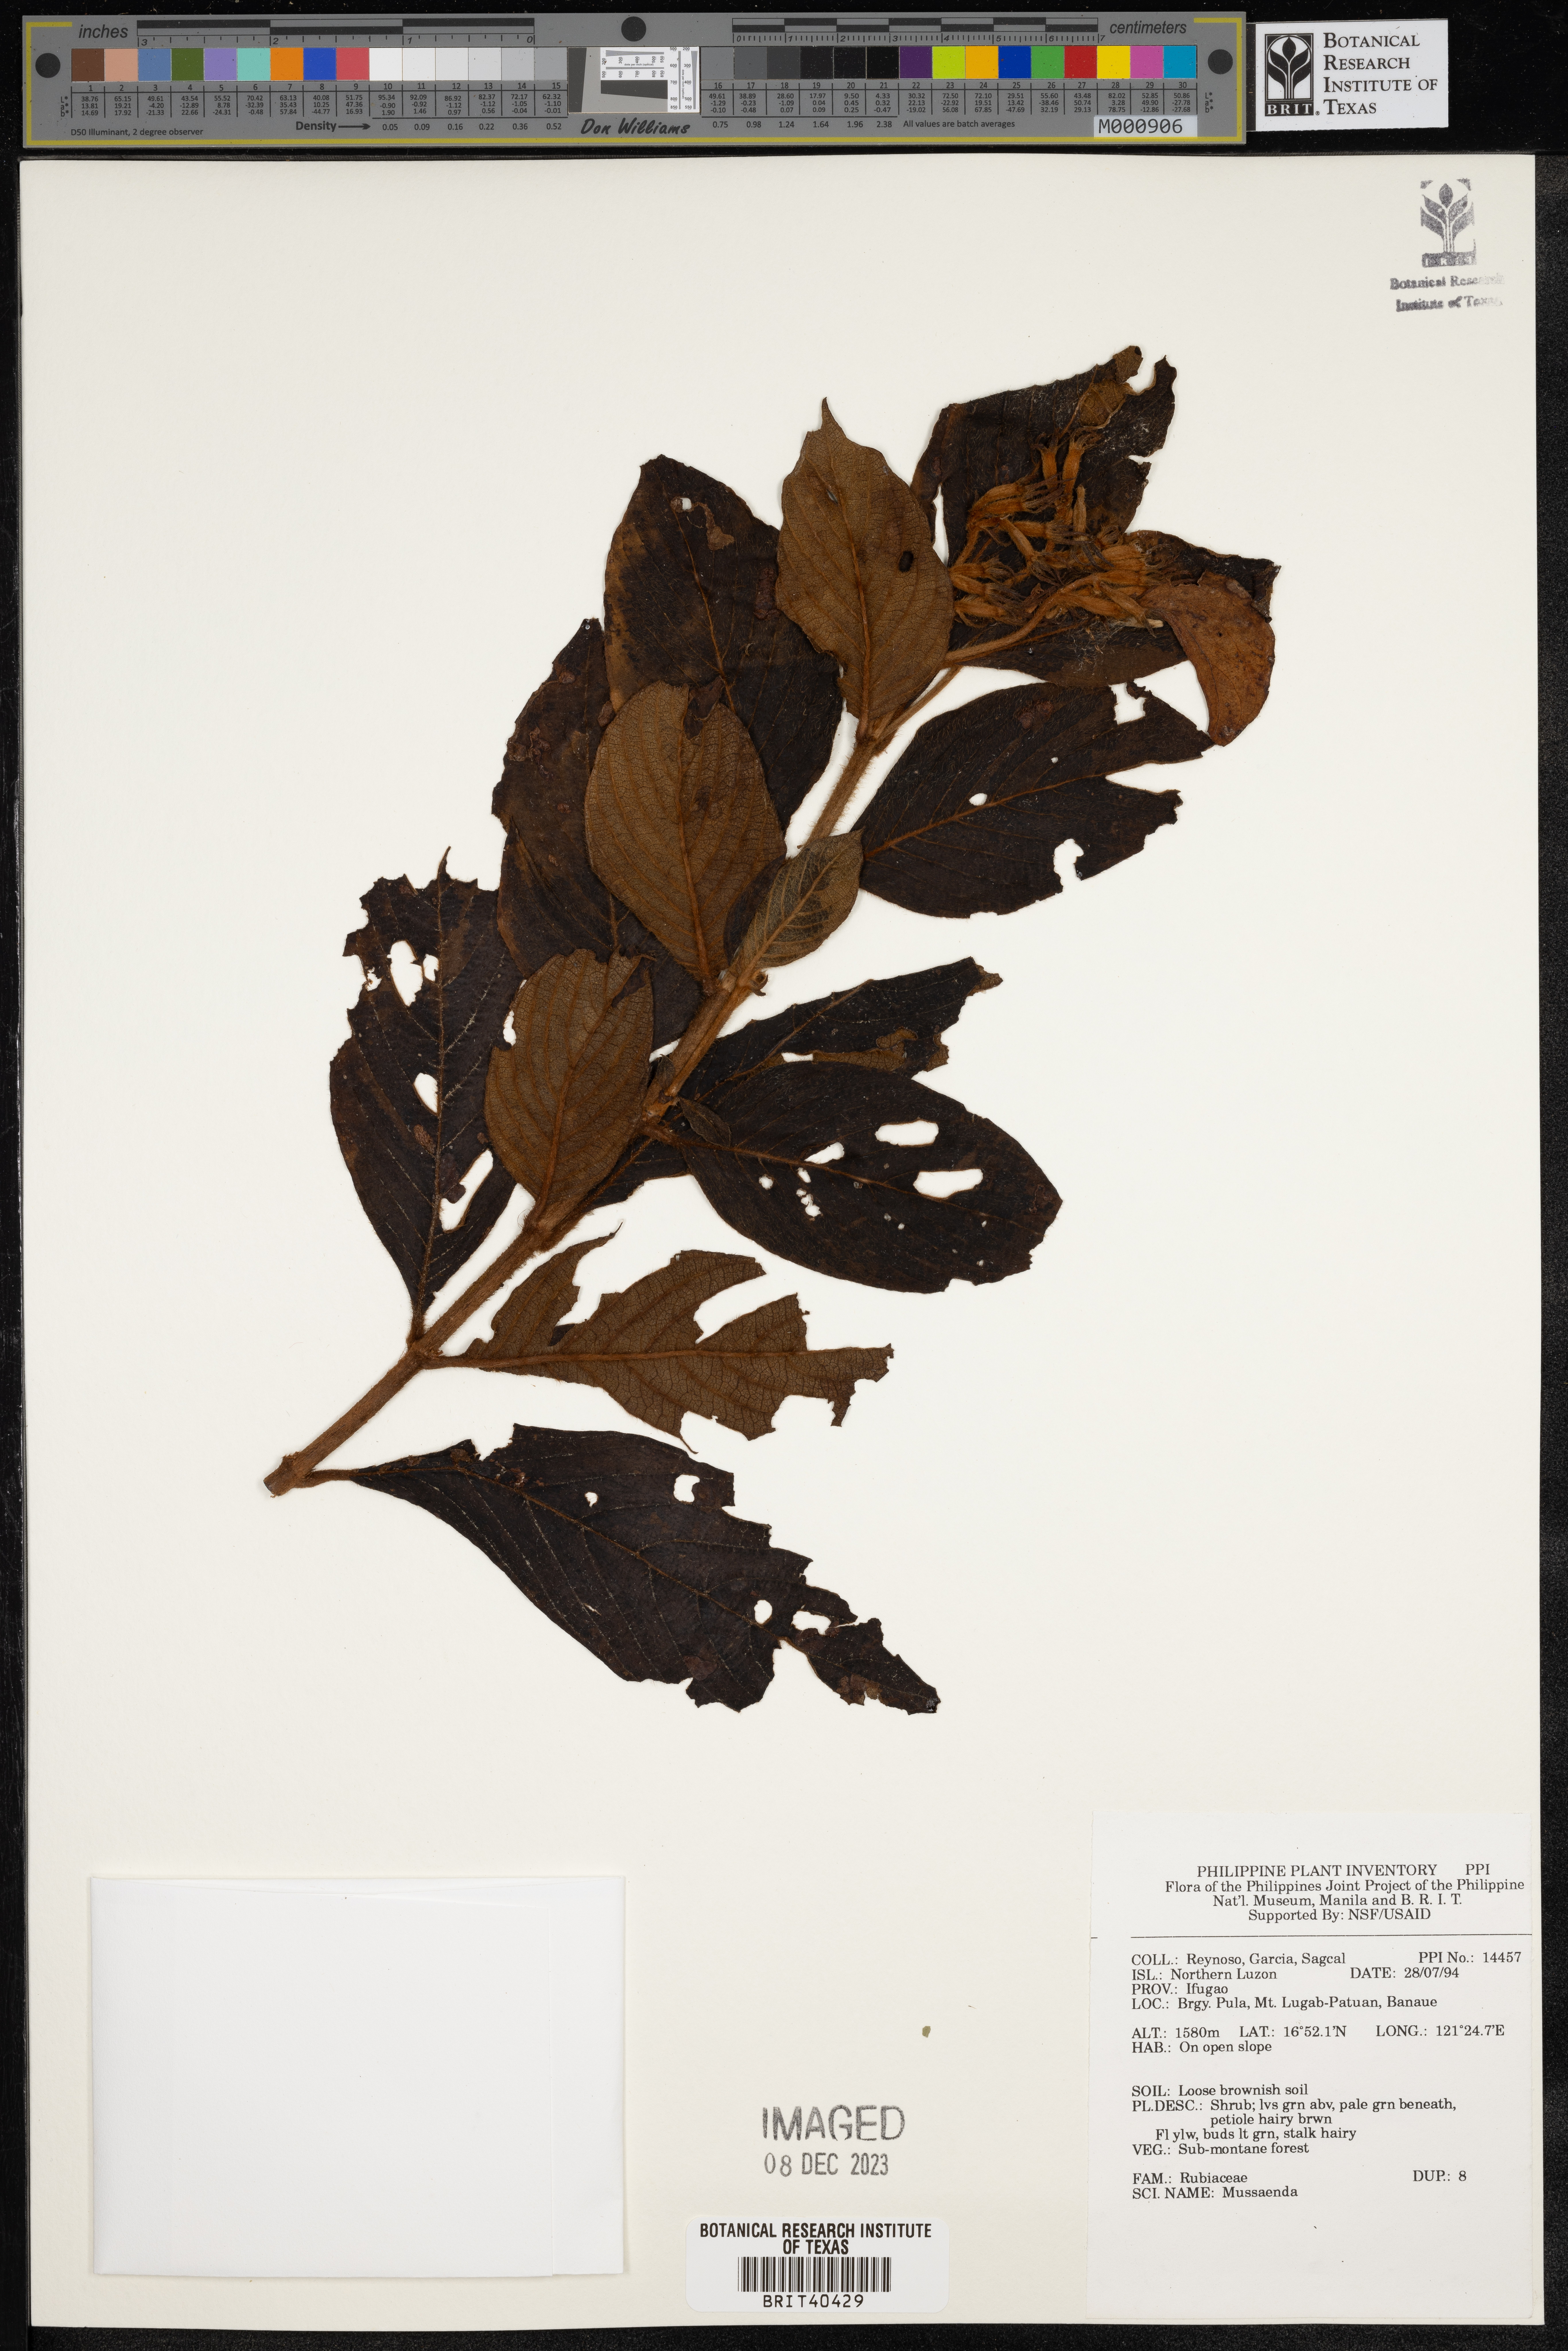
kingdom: Plantae
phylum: Tracheophyta
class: Magnoliopsida
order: Gentianales
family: Rubiaceae
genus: Mussaenda
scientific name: Mussaenda
